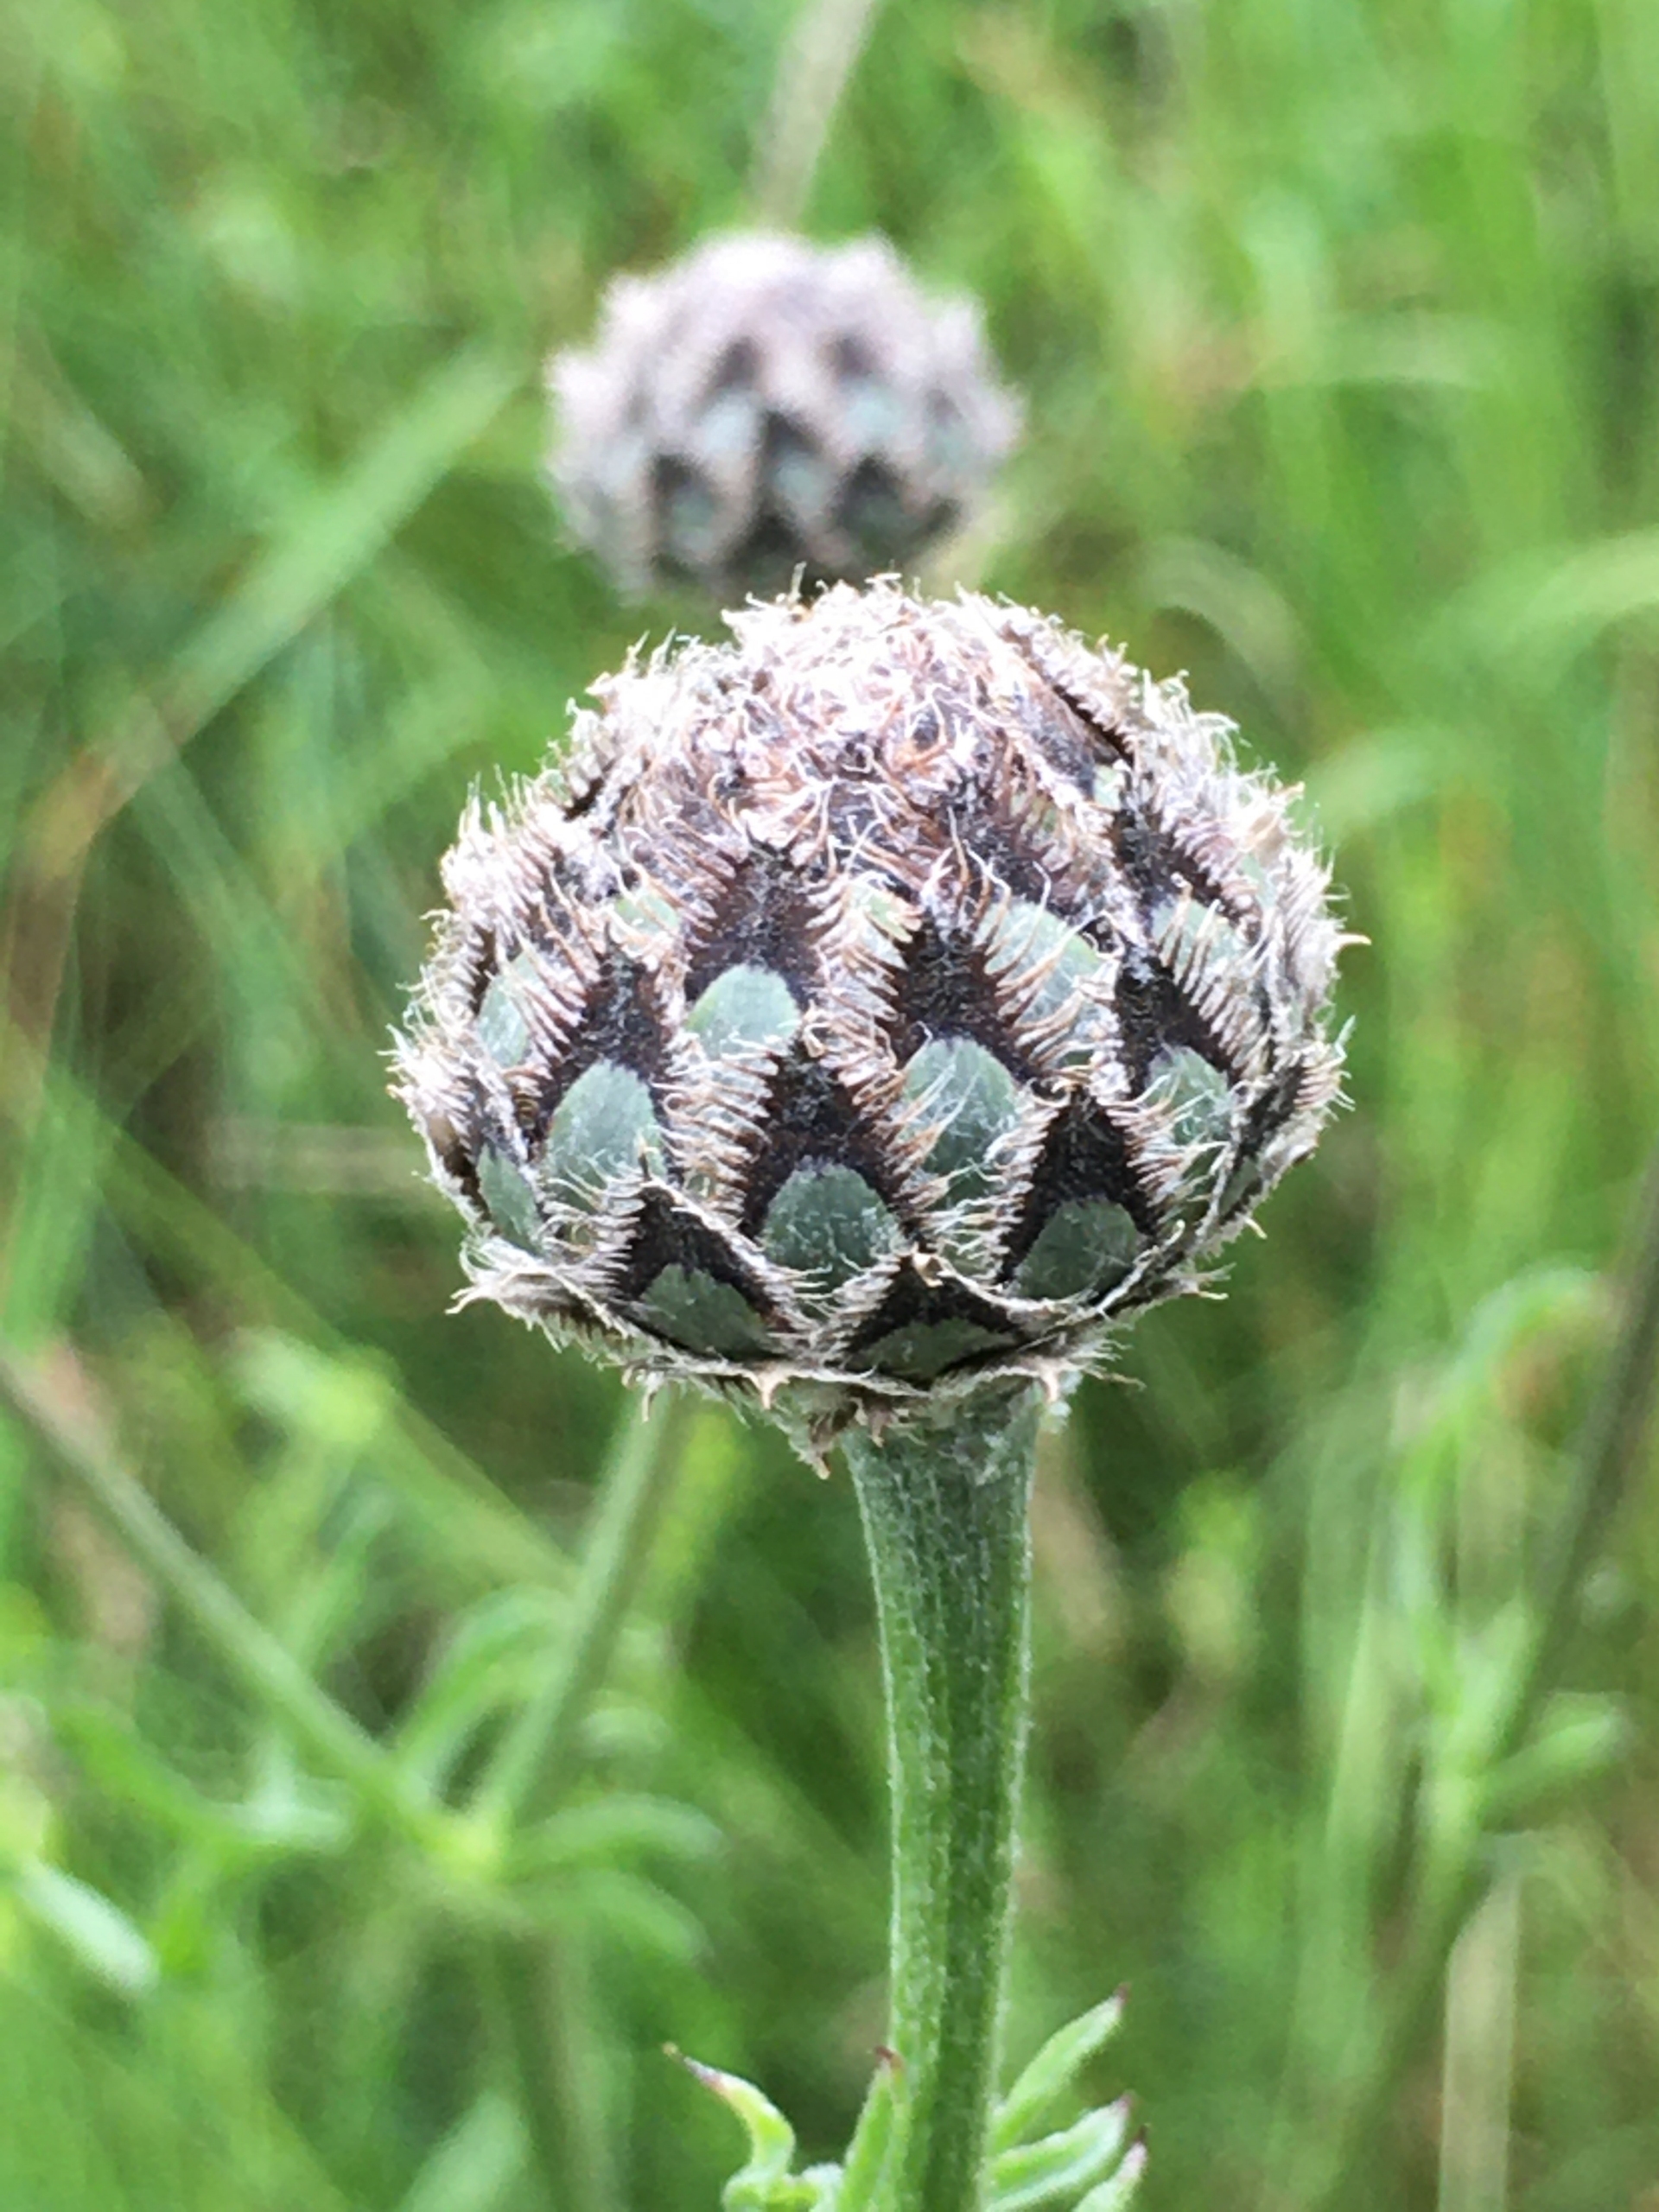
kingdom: Plantae
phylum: Tracheophyta
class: Magnoliopsida
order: Asterales
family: Asteraceae
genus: Centaurea
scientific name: Centaurea scabiosa
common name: Stor knopurt
